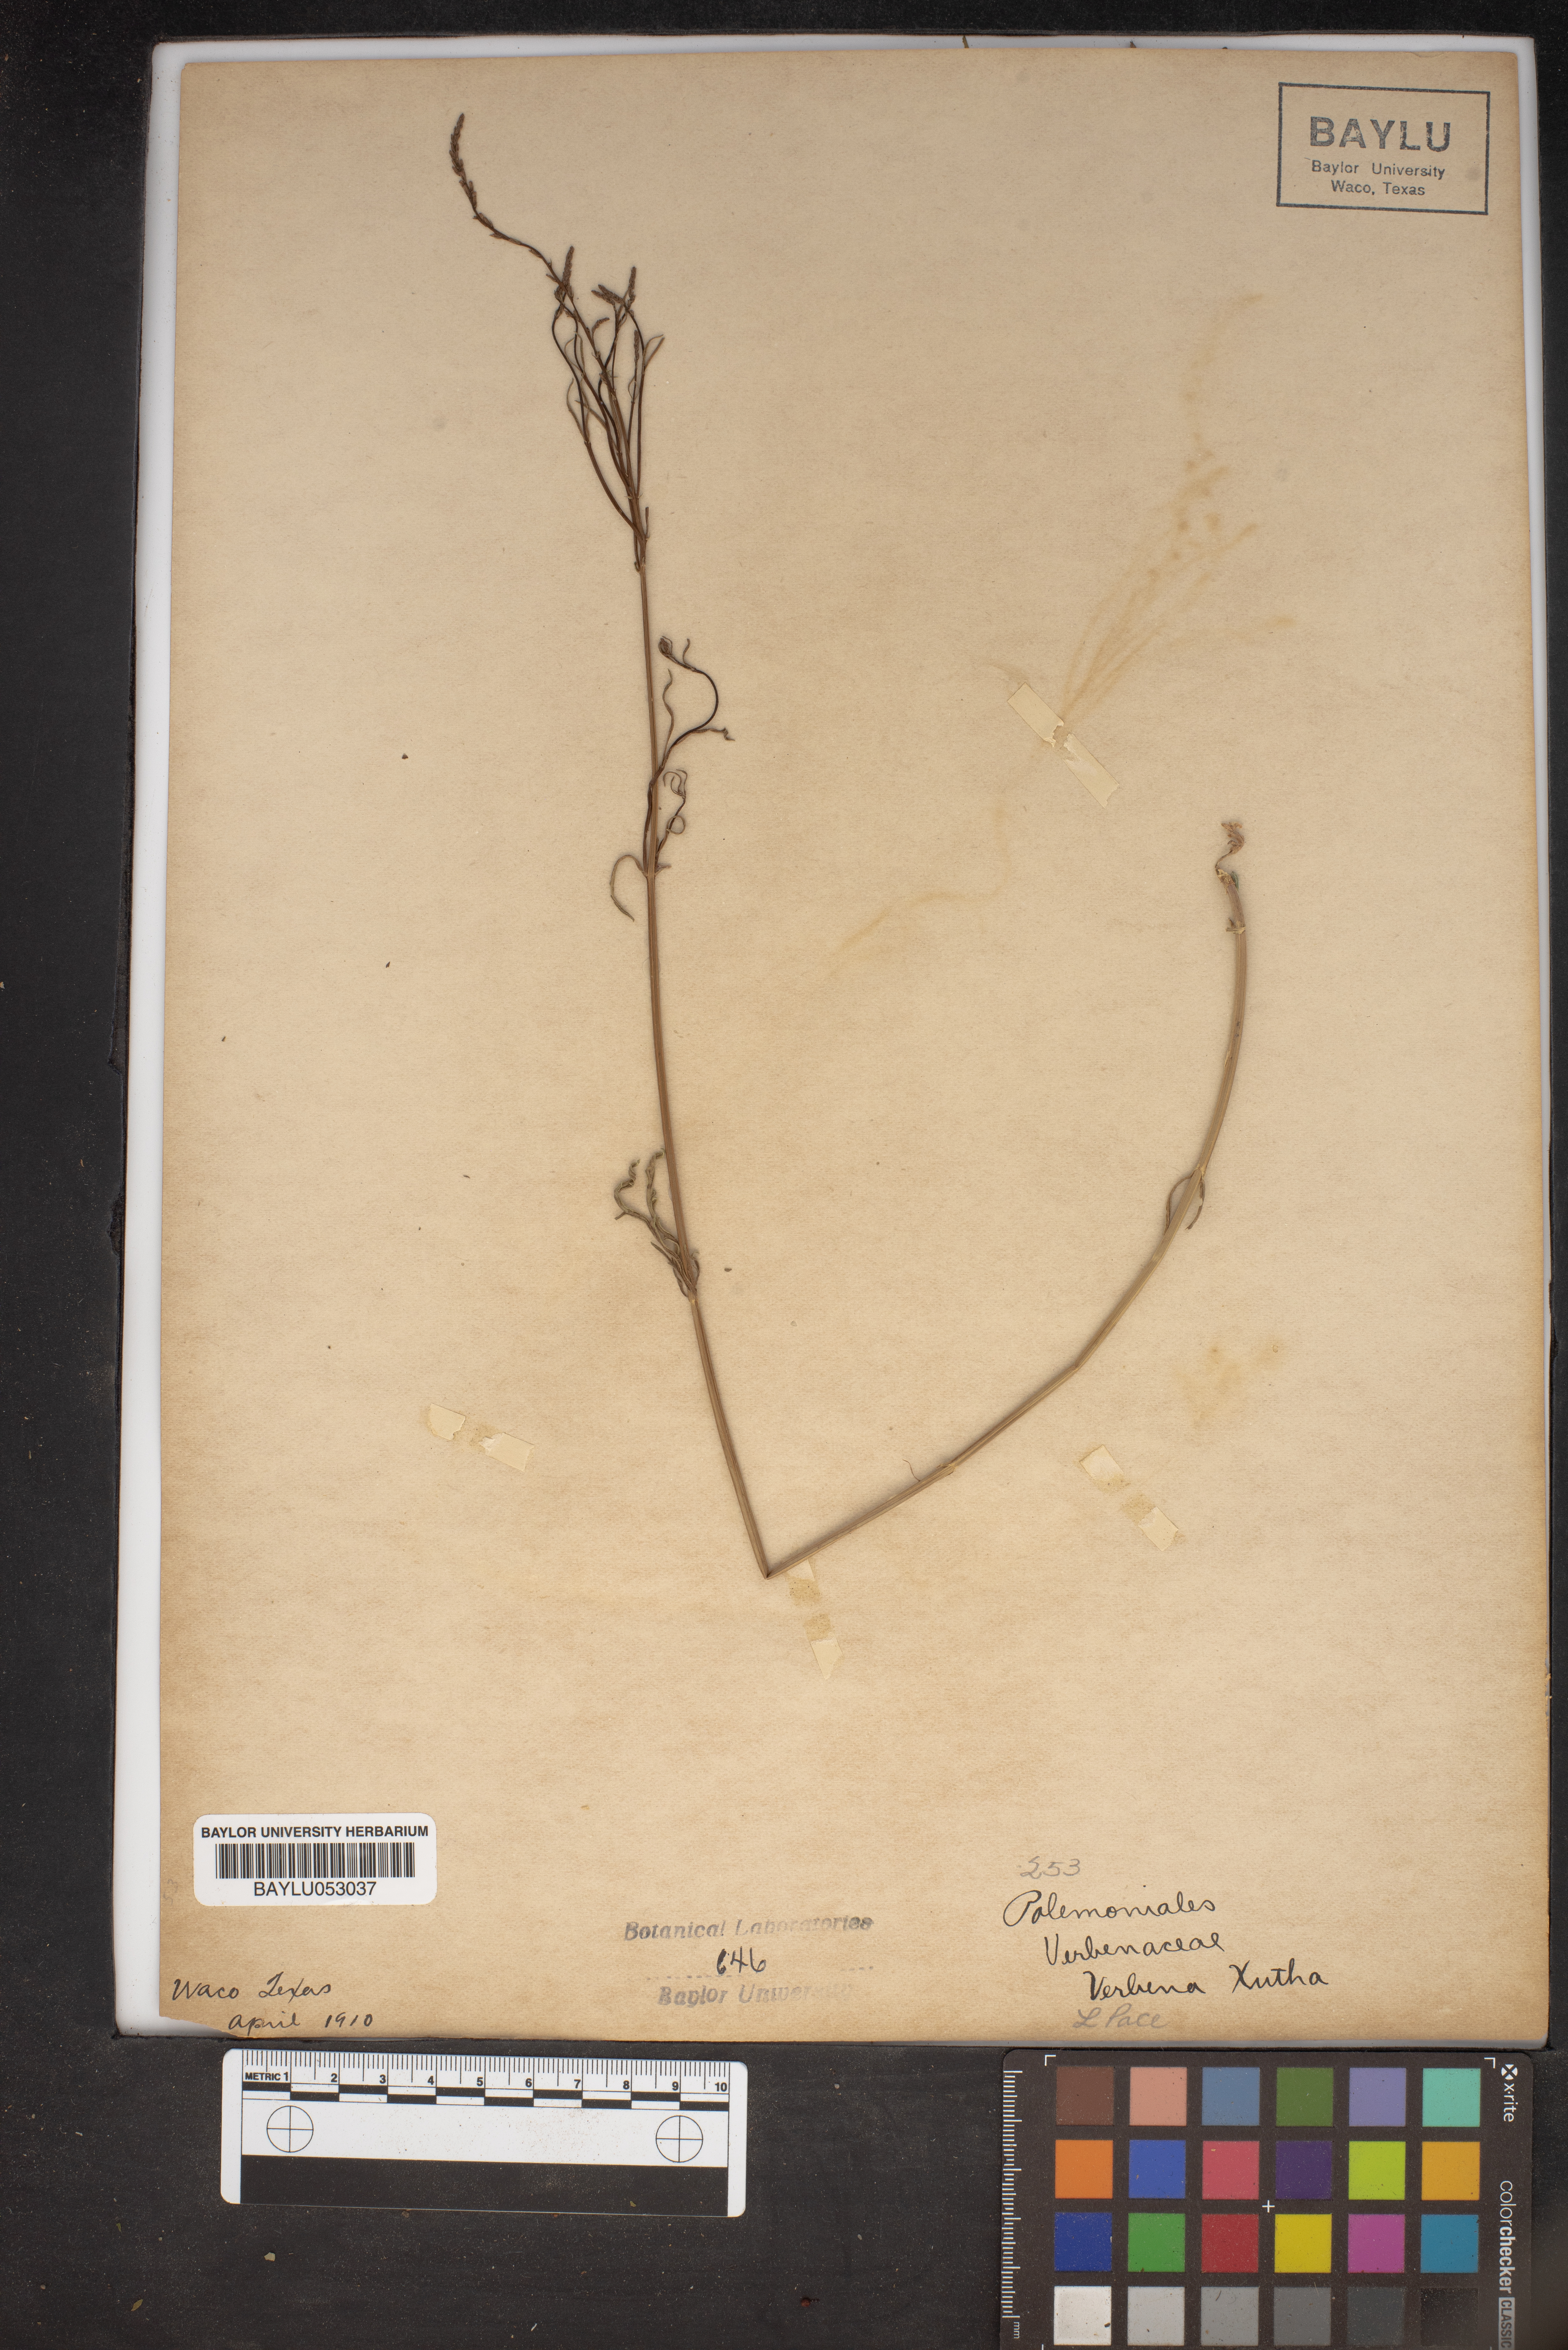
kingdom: Plantae
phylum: Tracheophyta
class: Magnoliopsida
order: Lamiales
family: Verbenaceae
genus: Verbena
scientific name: Verbena xutha
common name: Gulf vervain
